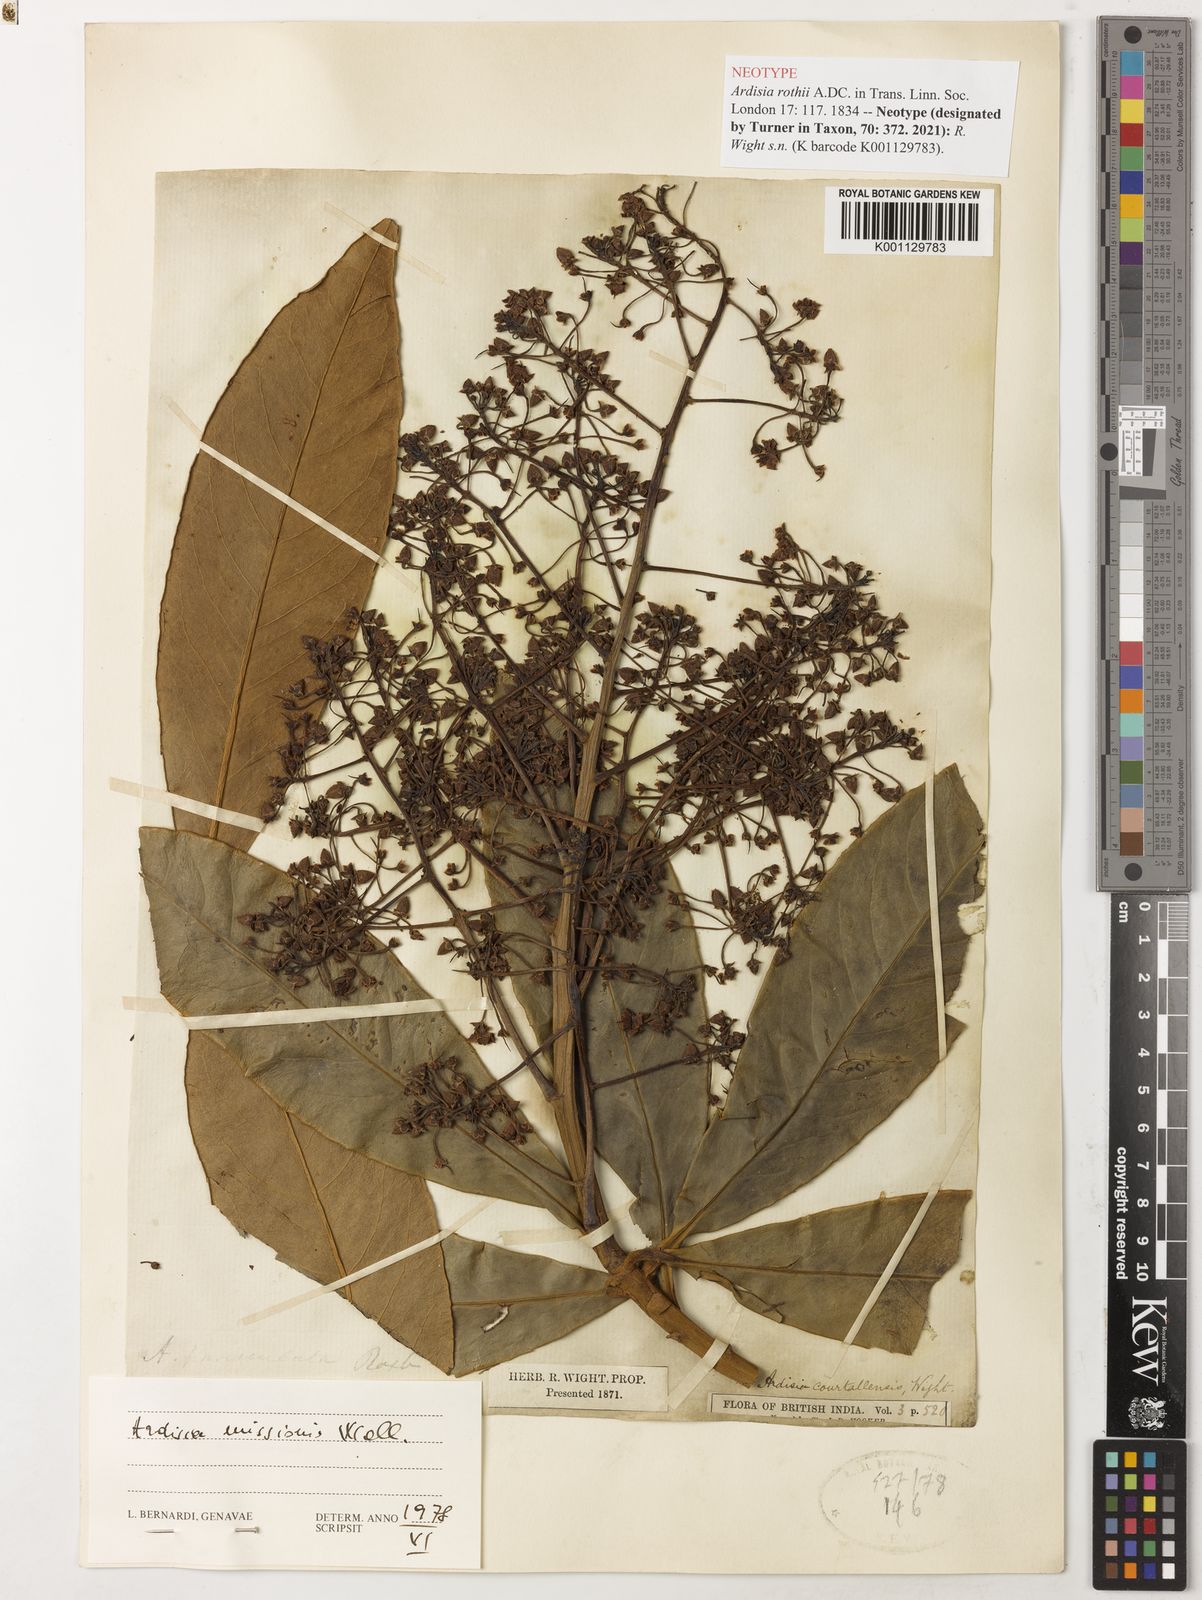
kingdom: Plantae
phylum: Tracheophyta
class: Magnoliopsida
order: Ericales
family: Primulaceae
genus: Ardisia
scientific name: Ardisia rothii
